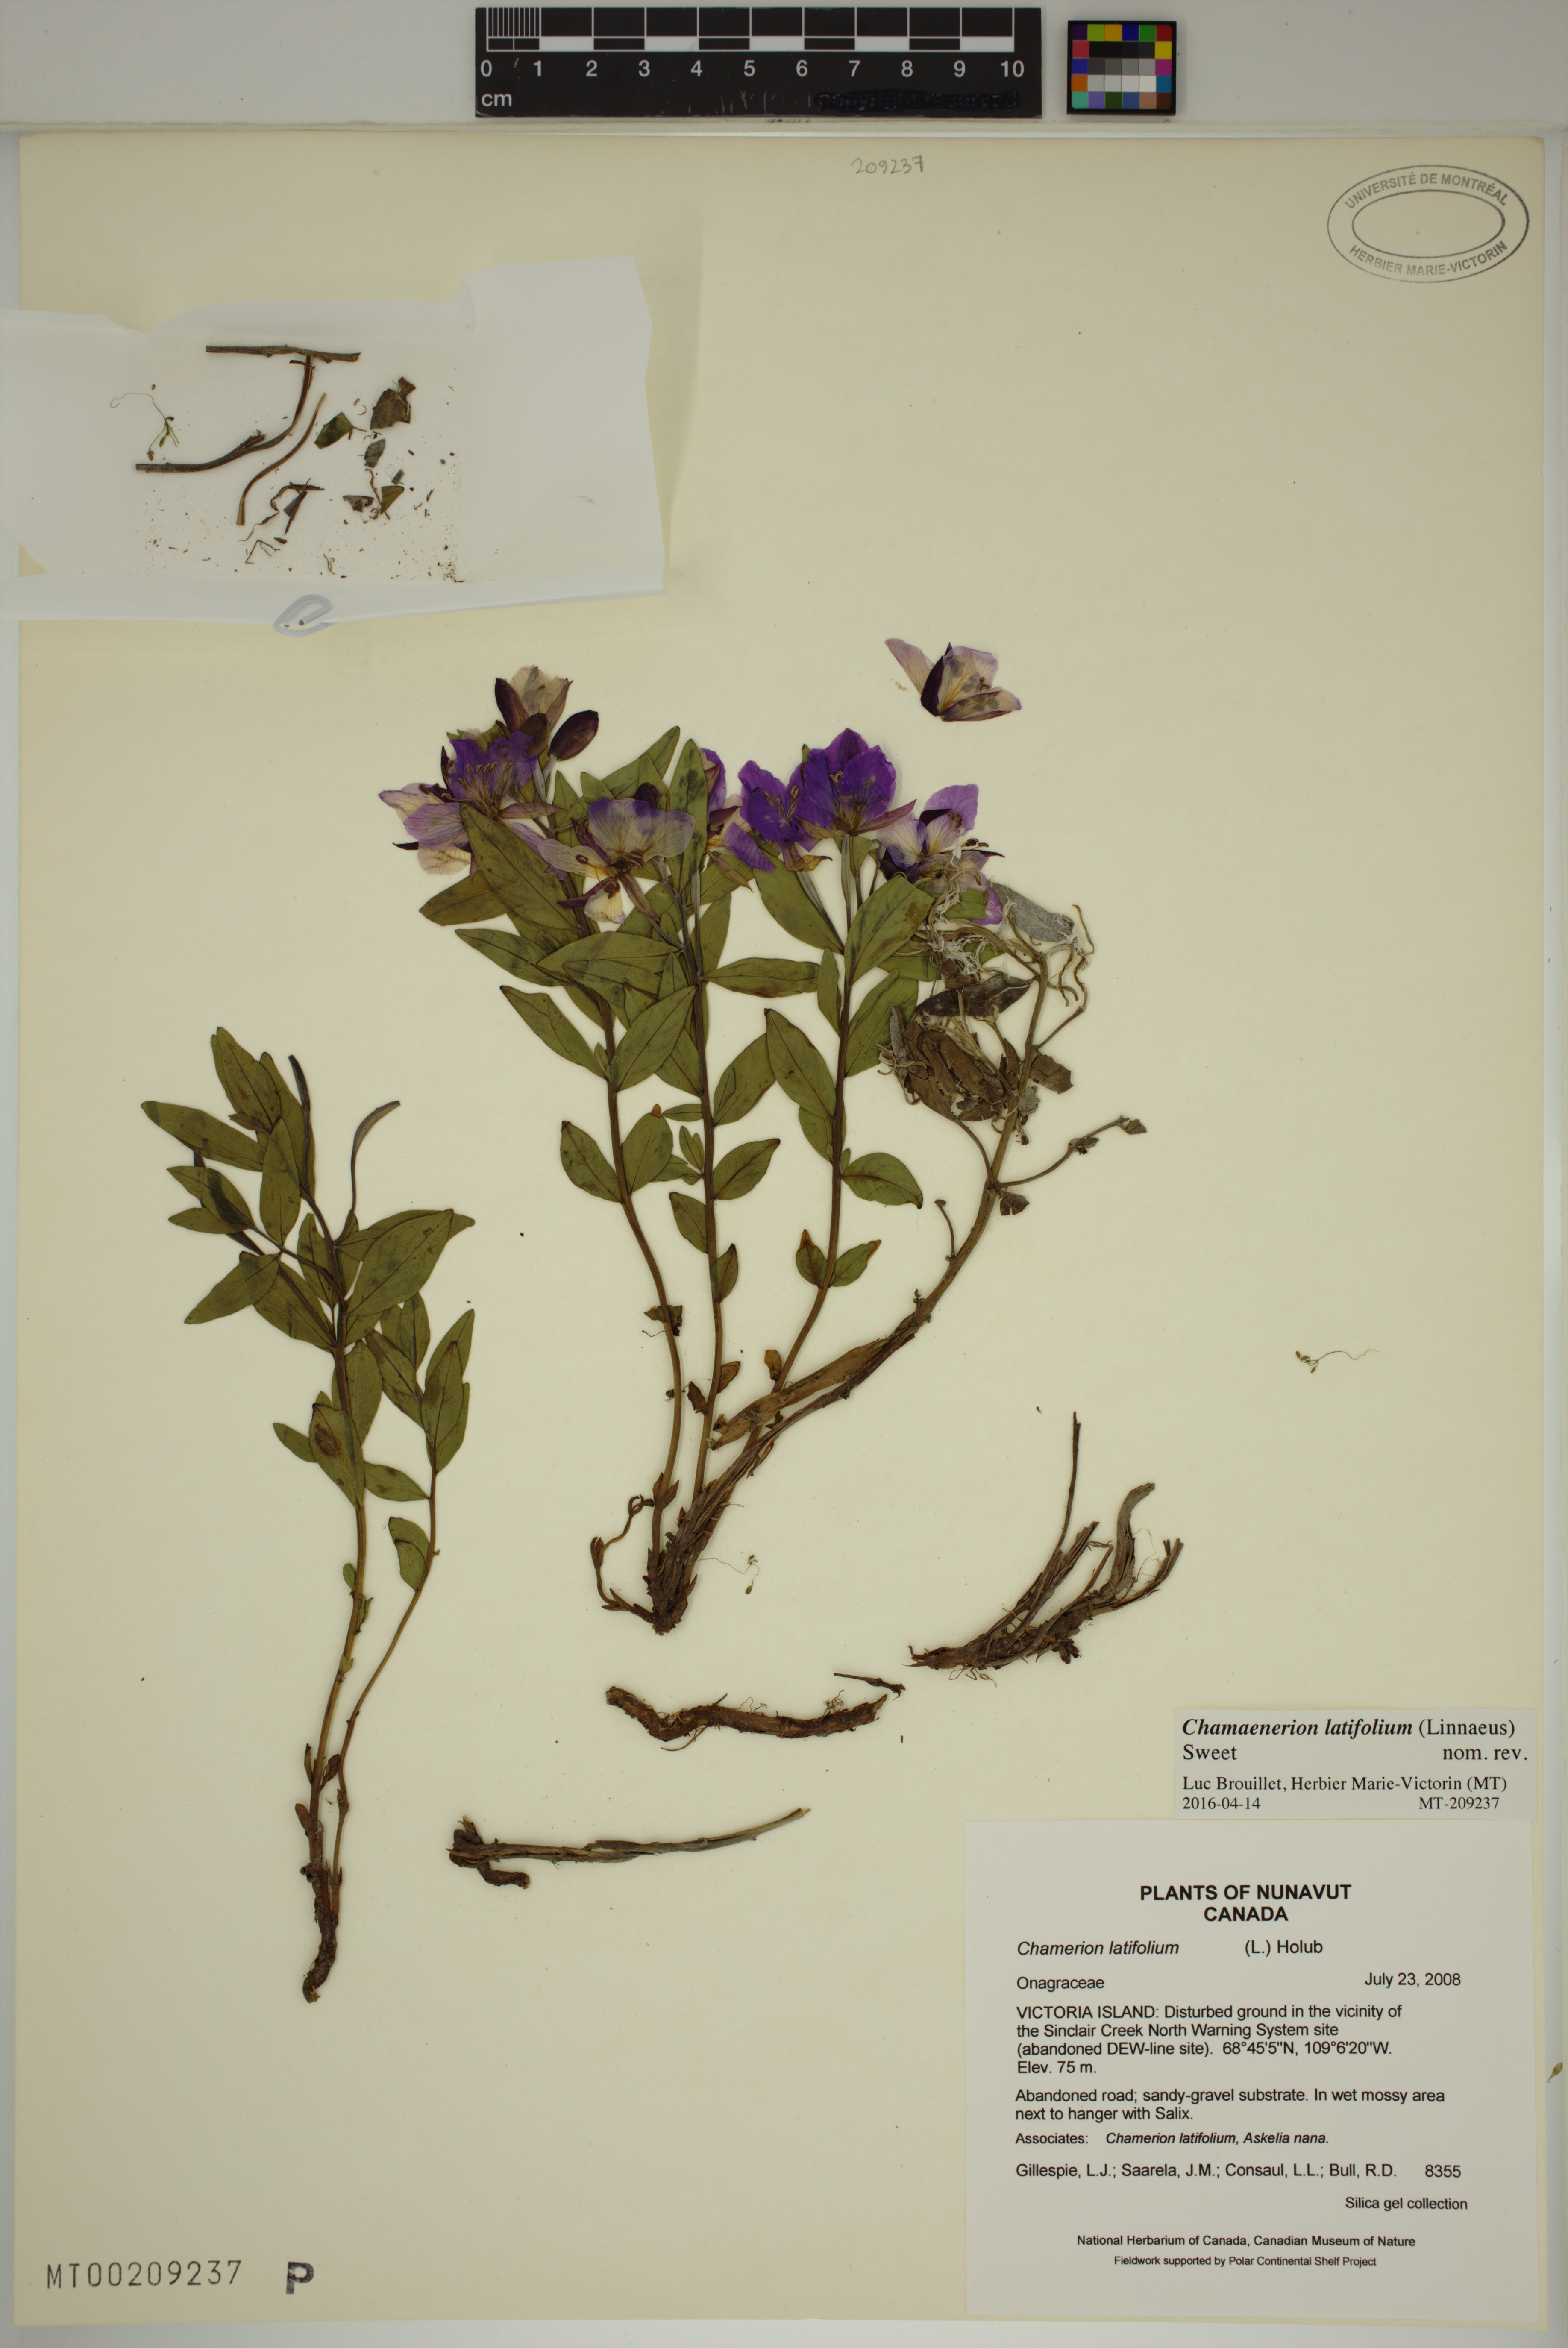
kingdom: Plantae
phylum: Tracheophyta
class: Magnoliopsida
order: Myrtales
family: Onagraceae
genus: Chamaenerion
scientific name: Chamaenerion latifolium
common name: Dwarf fireweed
